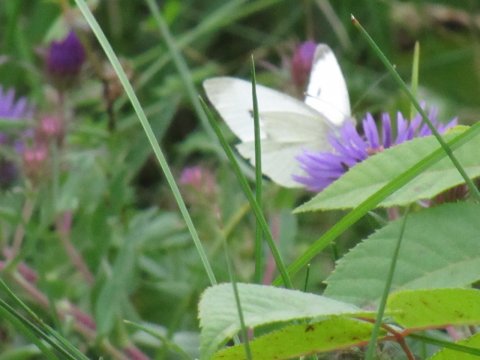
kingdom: Animalia
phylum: Arthropoda
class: Insecta
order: Lepidoptera
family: Pieridae
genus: Pieris
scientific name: Pieris rapae
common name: Cabbage White
